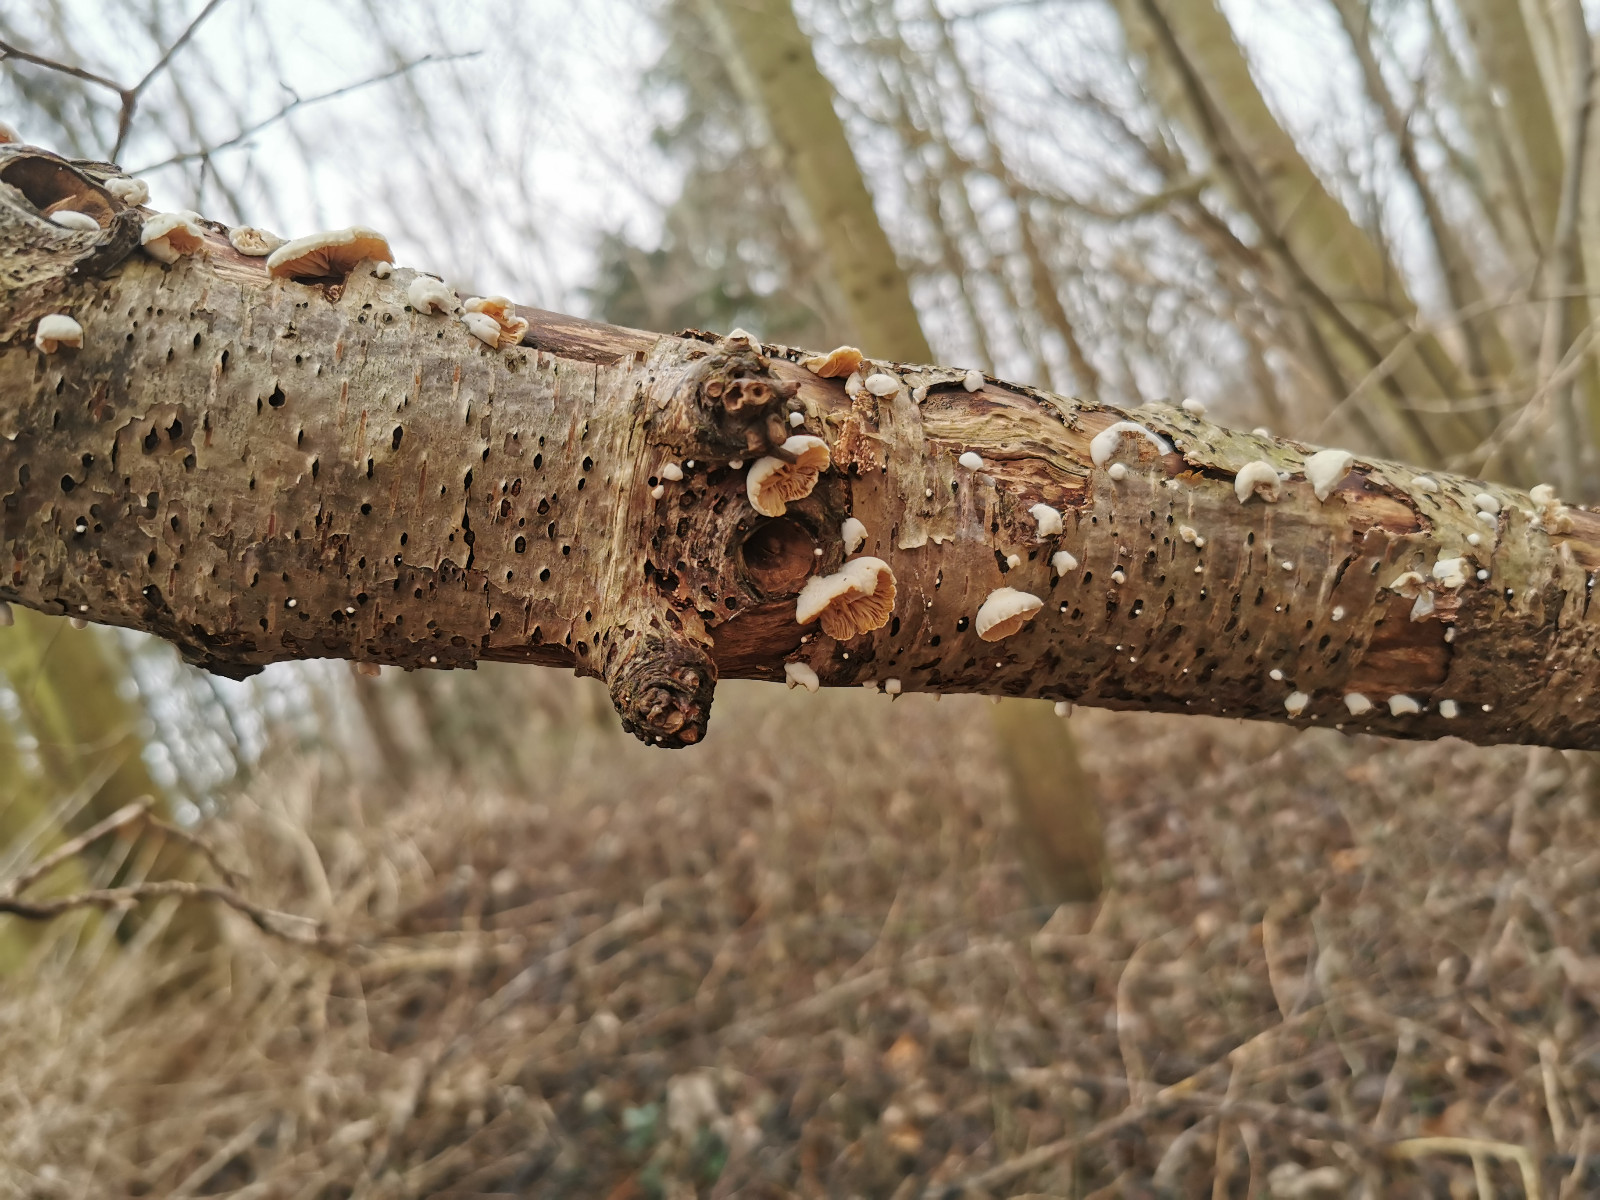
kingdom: Fungi
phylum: Basidiomycota
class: Agaricomycetes
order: Agaricales
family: Crepidotaceae
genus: Crepidotus
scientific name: Crepidotus
